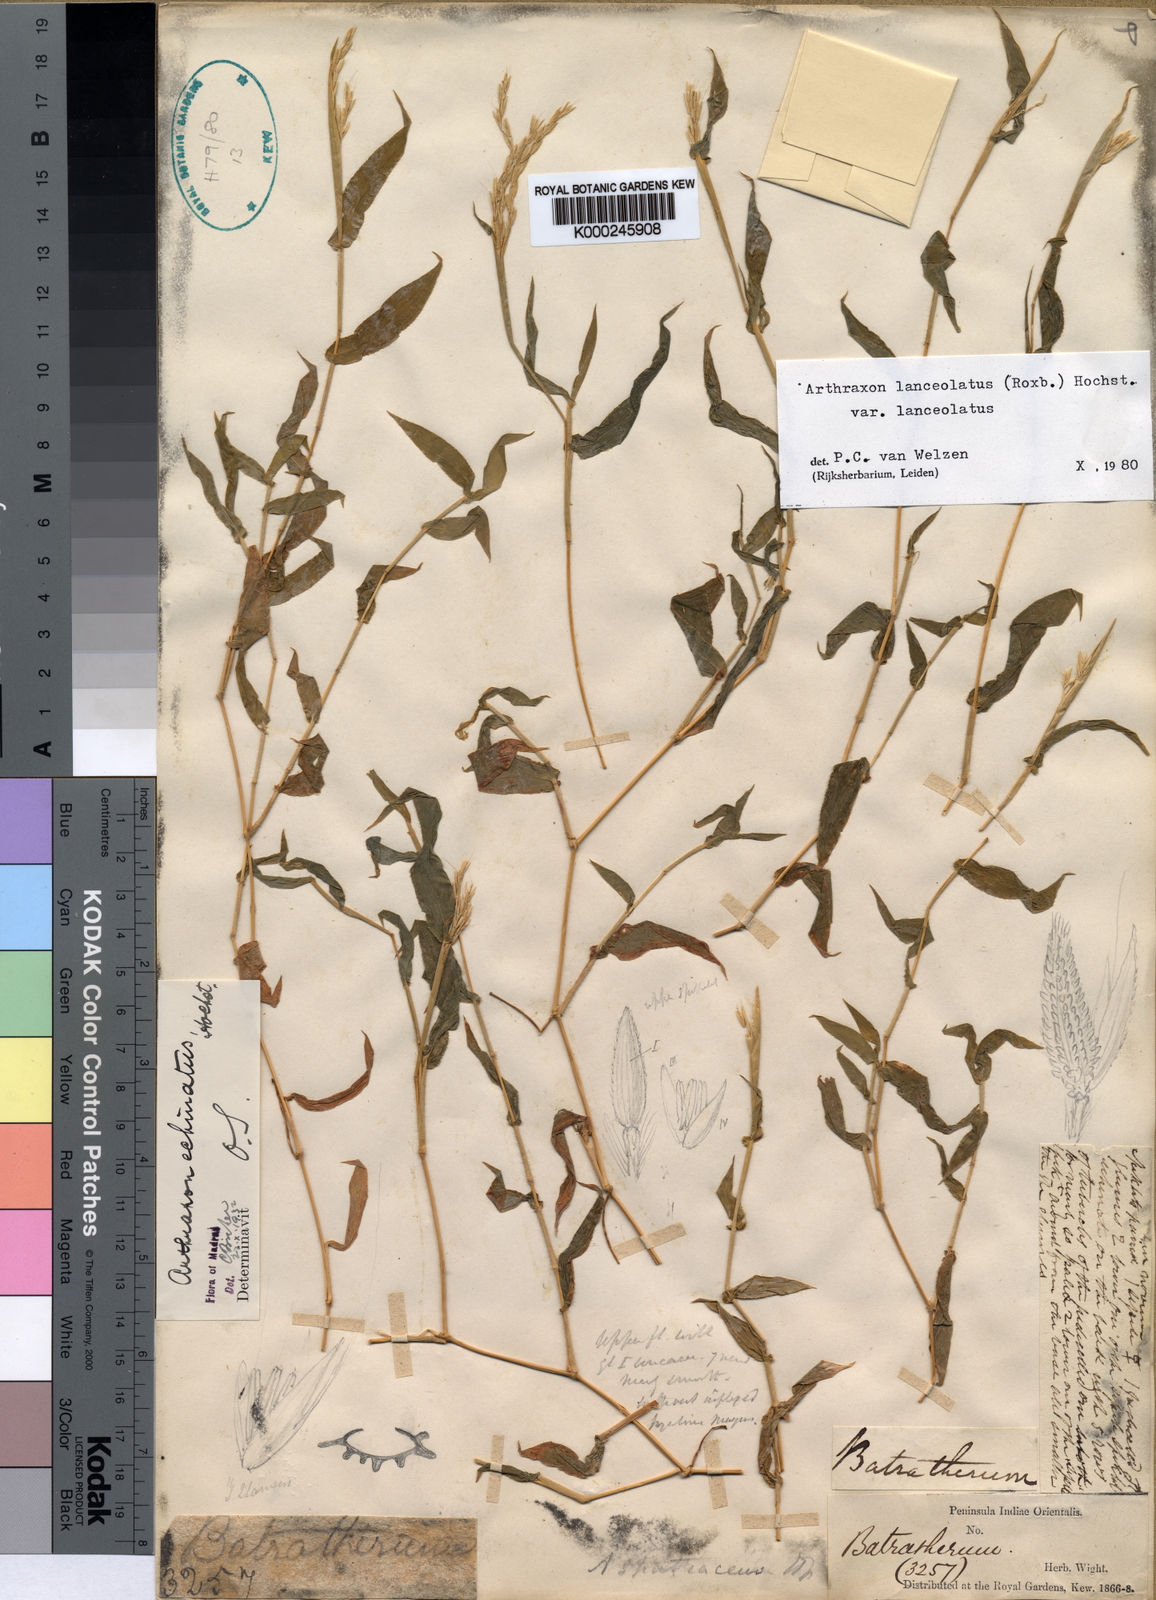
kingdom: Plantae
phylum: Tracheophyta
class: Liliopsida
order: Poales
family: Poaceae
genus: Arthraxon
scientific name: Arthraxon echinatus
